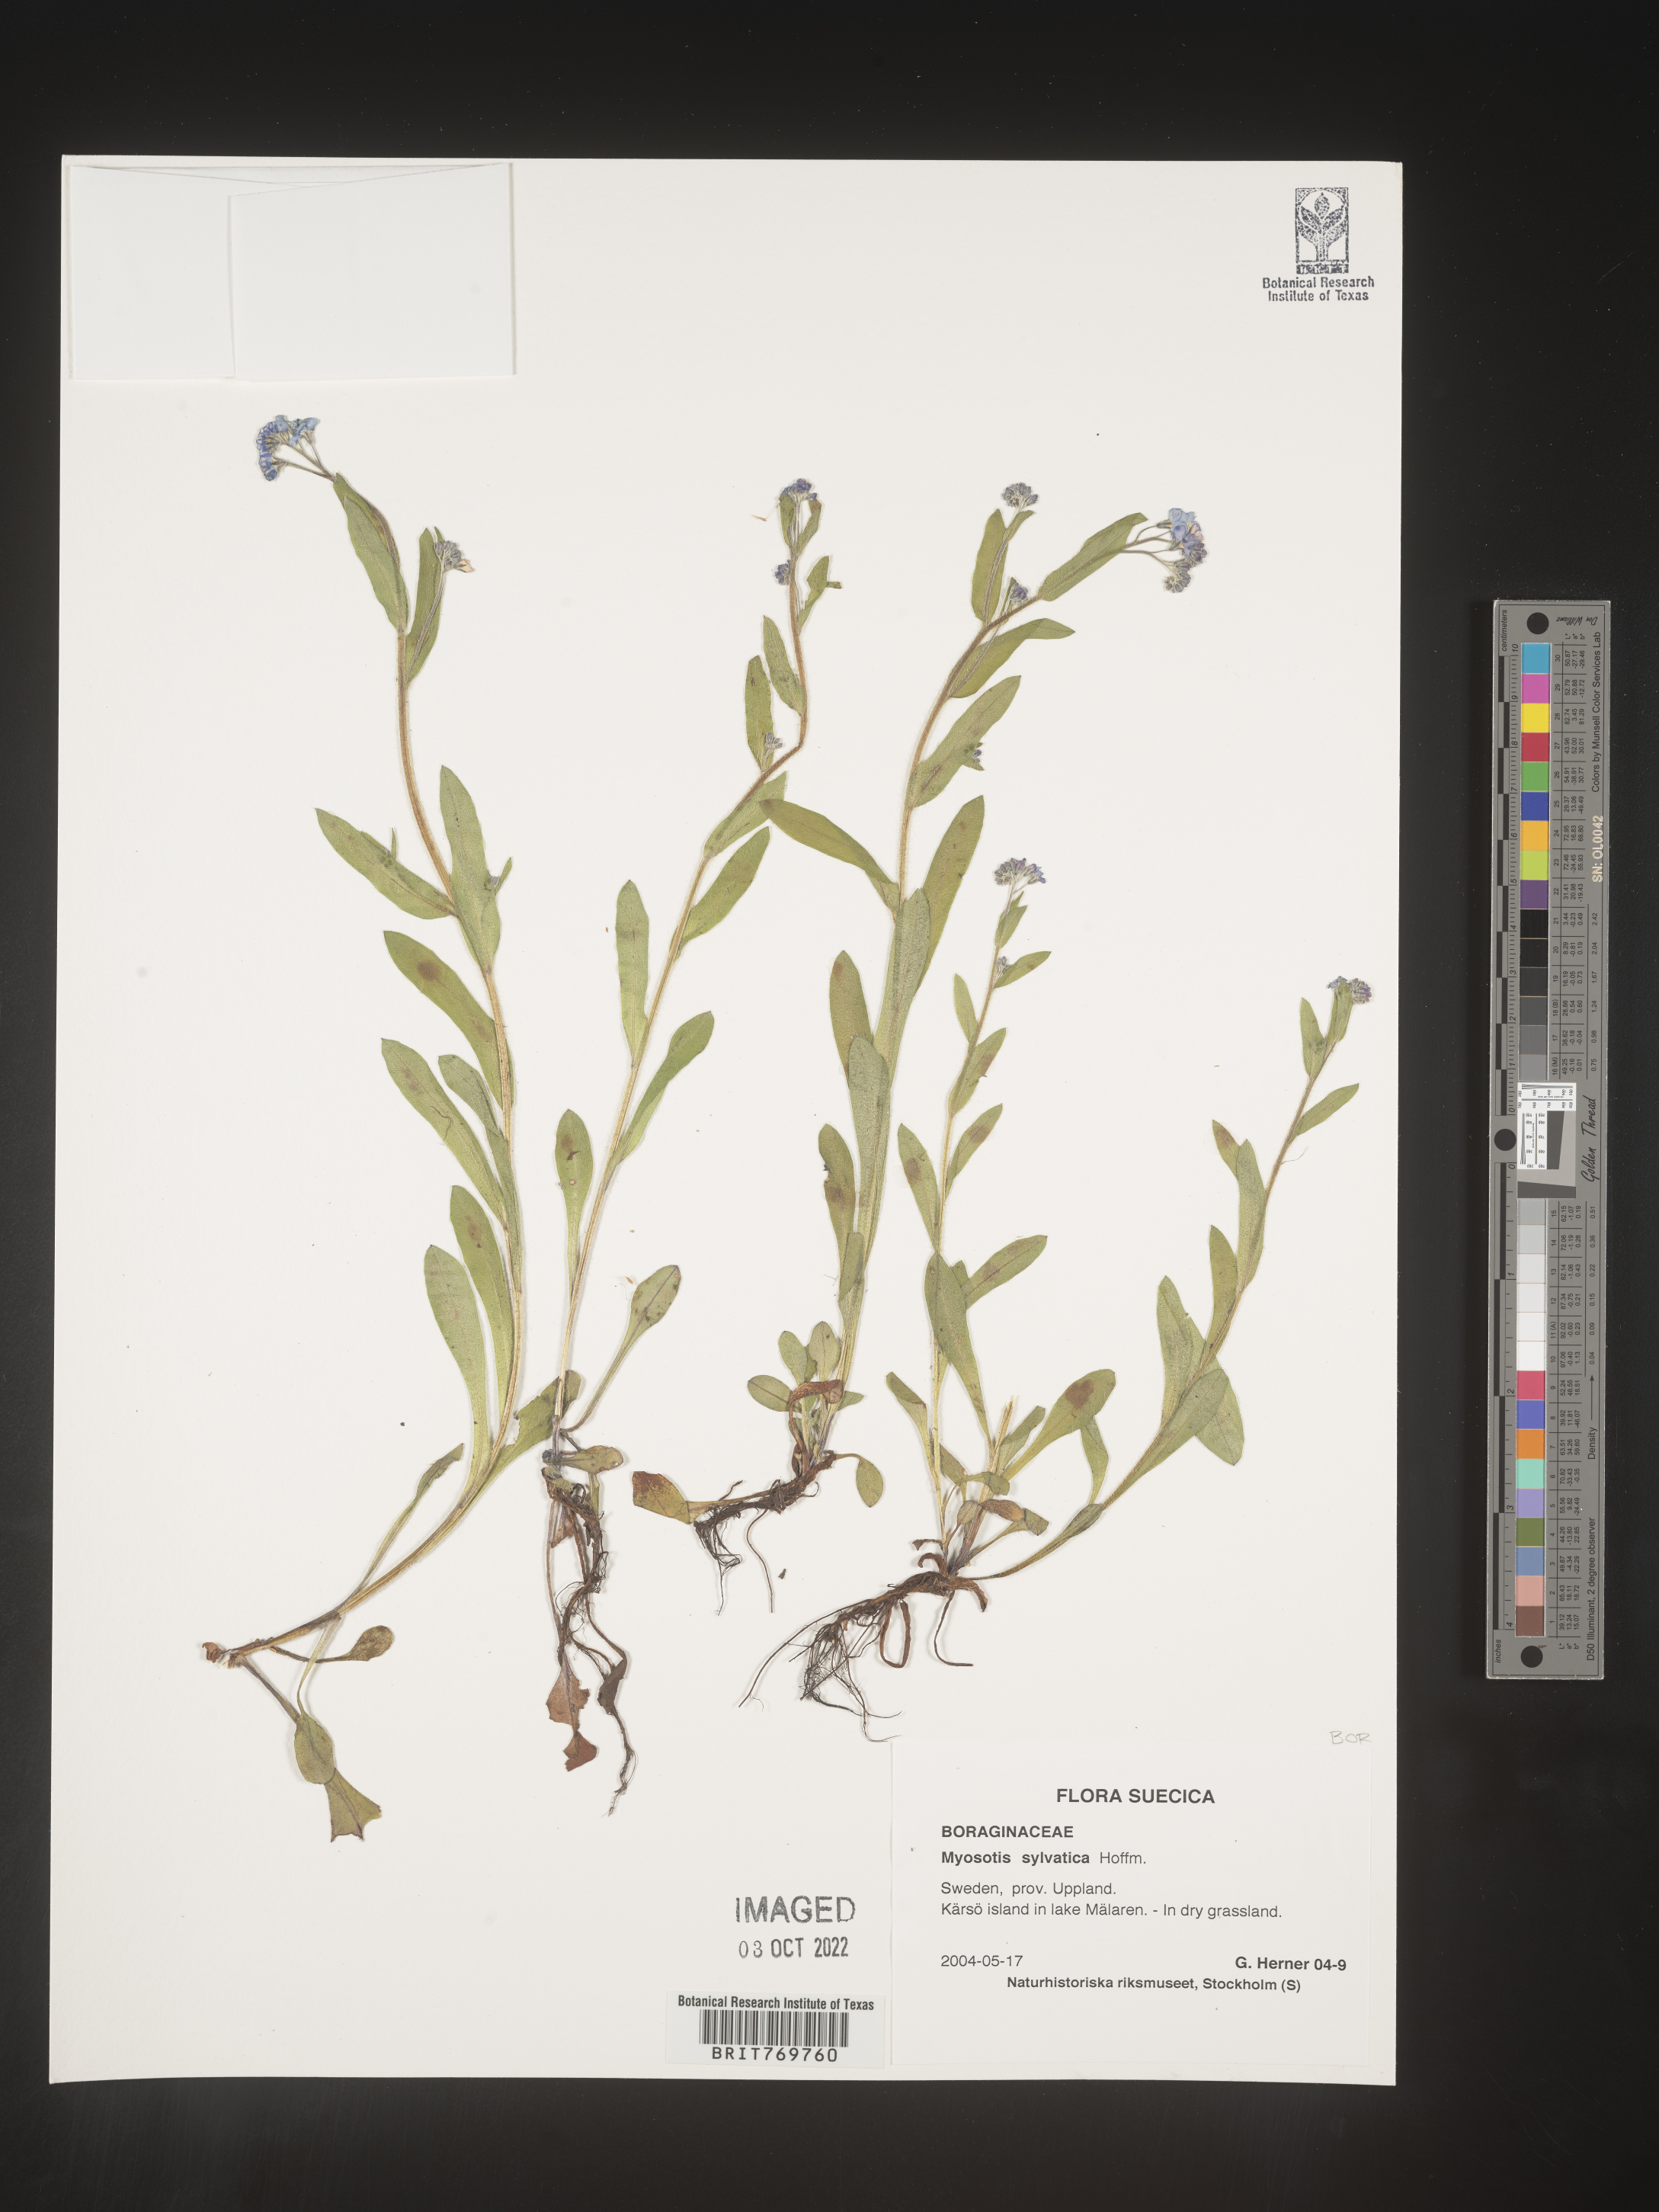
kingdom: Plantae
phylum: Tracheophyta
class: Magnoliopsida
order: Boraginales
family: Boraginaceae
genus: Myosotis
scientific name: Myosotis
